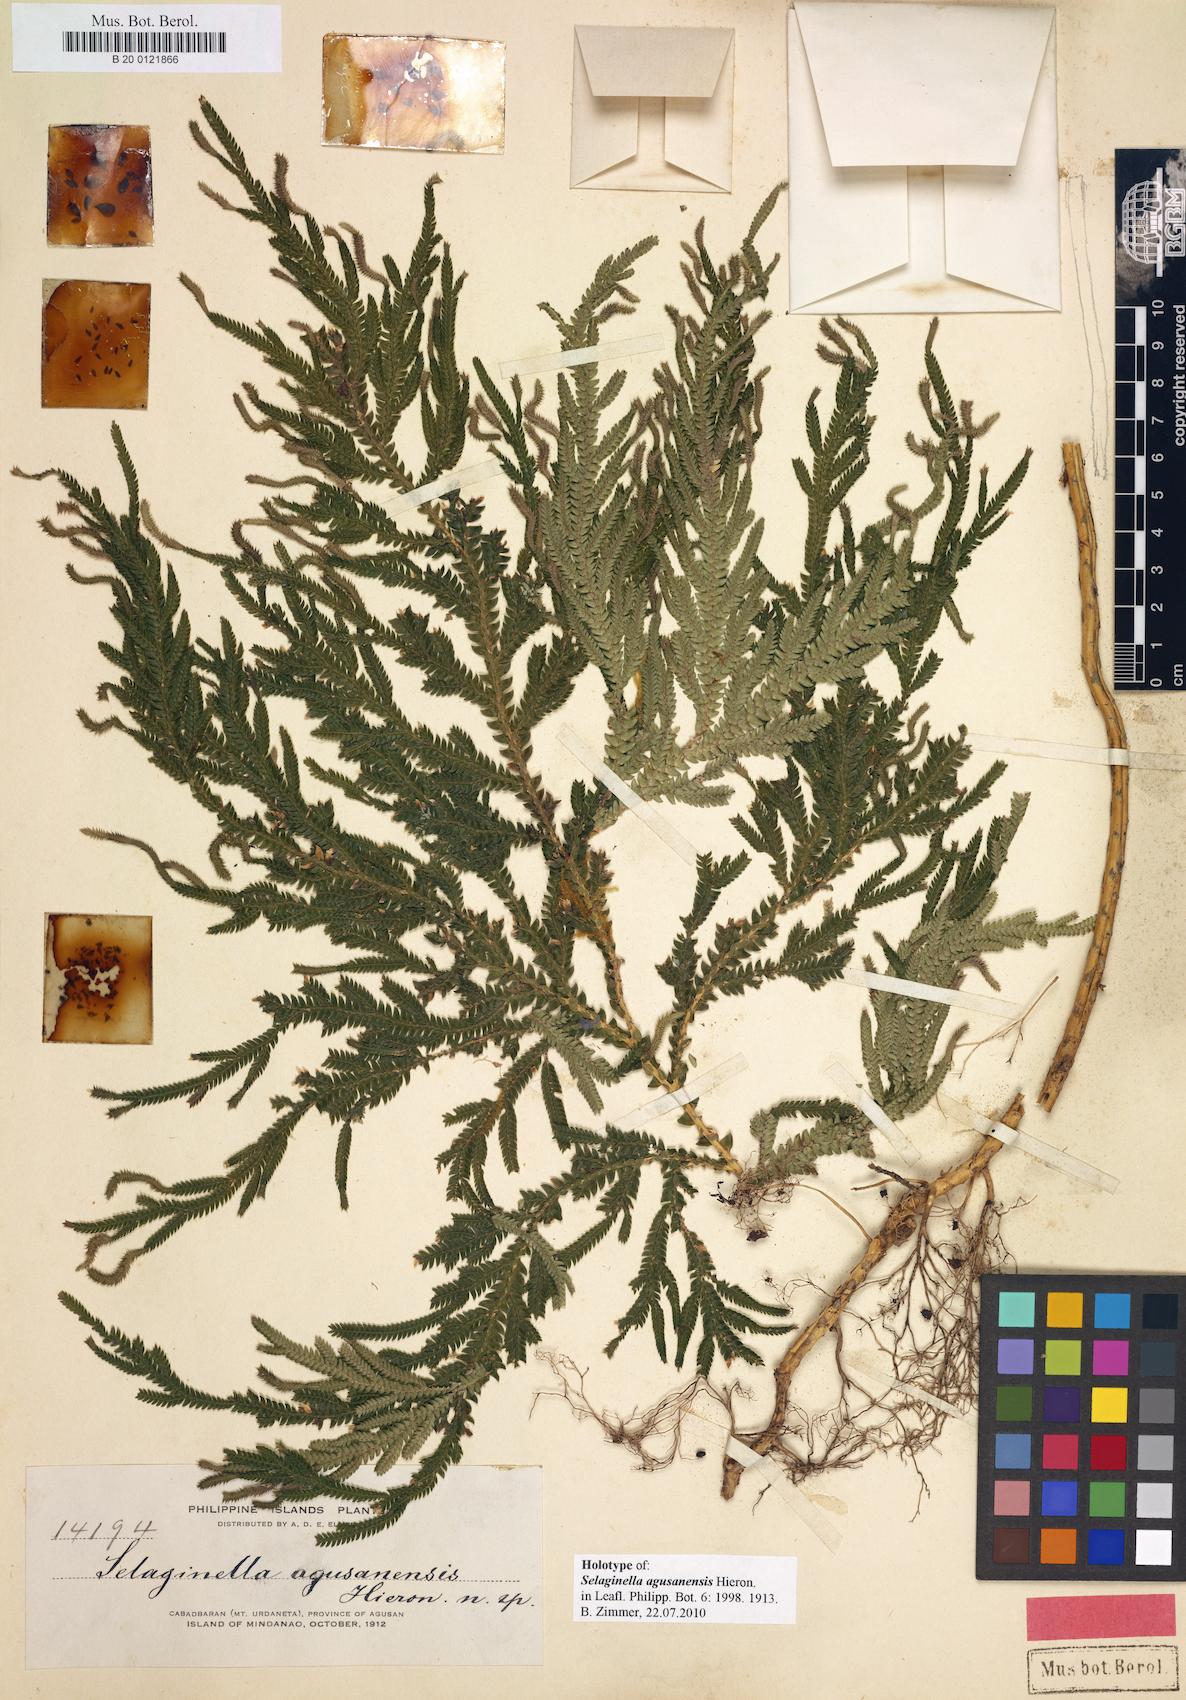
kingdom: Plantae
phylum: Tracheophyta
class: Lycopodiopsida
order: Selaginellales
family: Selaginellaceae
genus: Selaginella
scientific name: Selaginella copelandii
